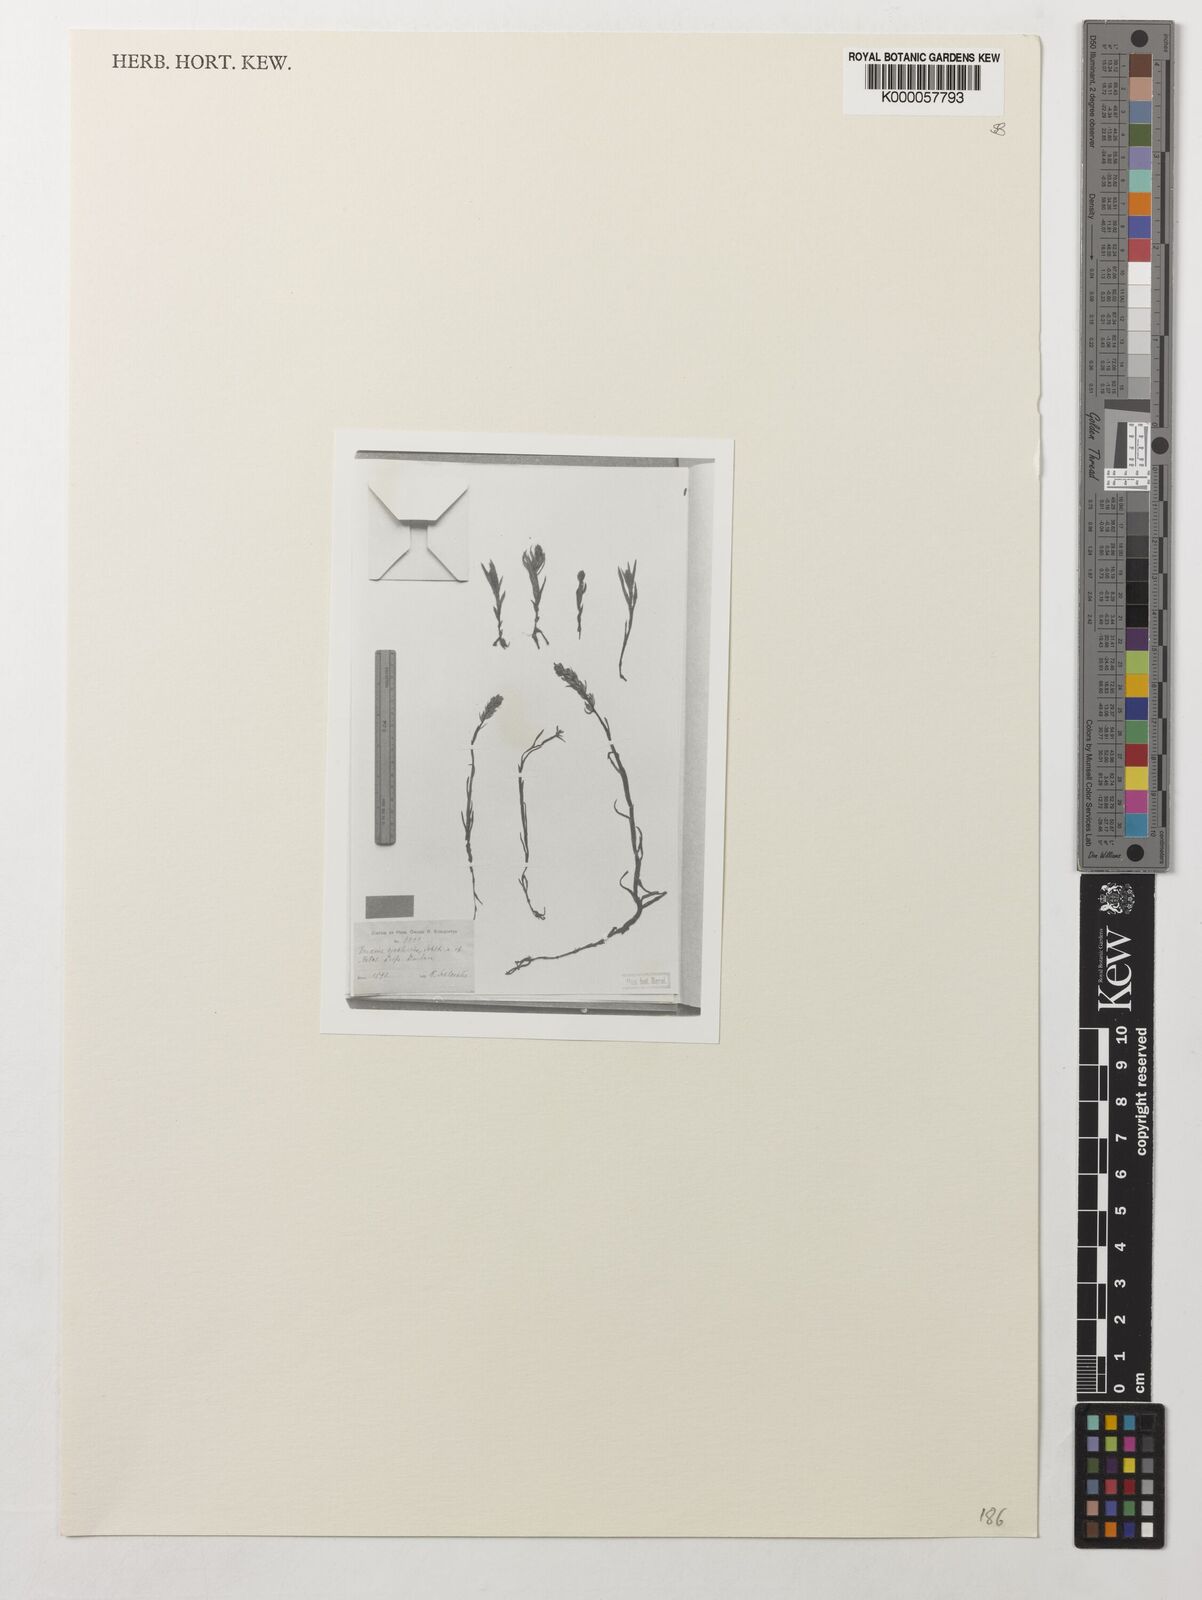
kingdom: Plantae
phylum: Tracheophyta
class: Liliopsida
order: Asparagales
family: Orchidaceae
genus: Zeuxine
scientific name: Zeuxine africana
